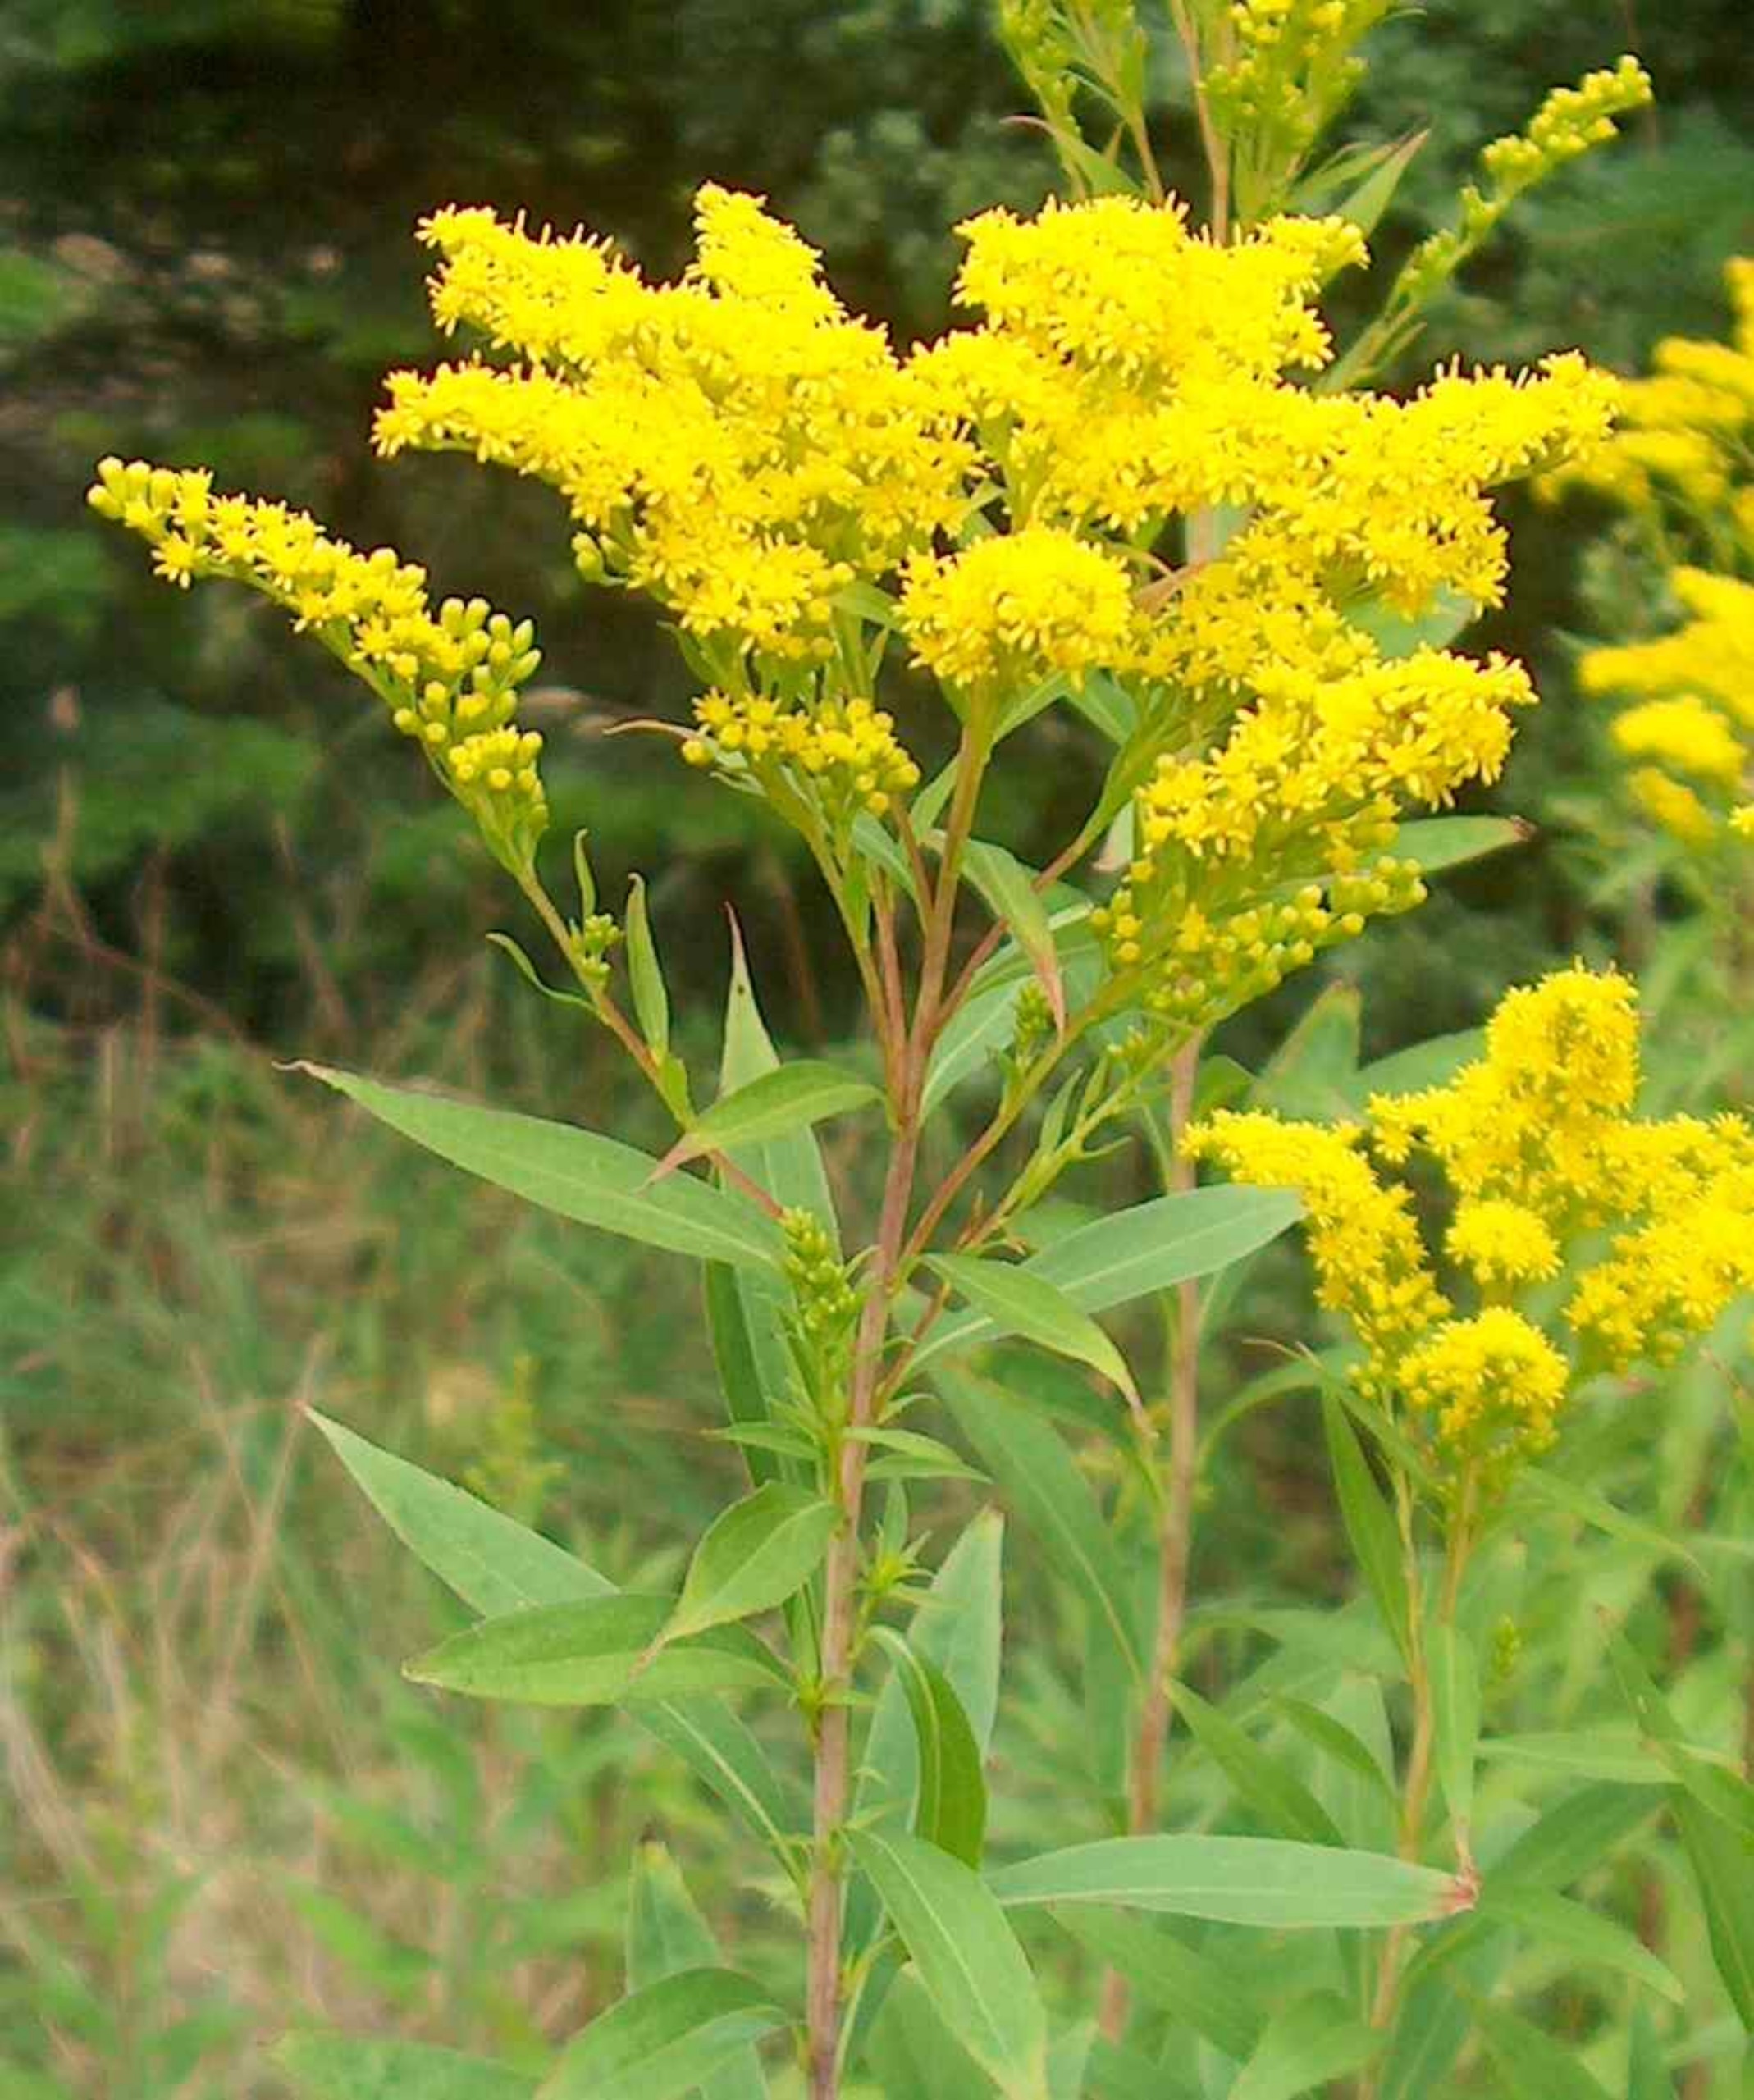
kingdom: Plantae
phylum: Tracheophyta
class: Magnoliopsida
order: Asterales
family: Asteraceae
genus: Solidago
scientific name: Solidago gigantea
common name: Sildig gyldenris
